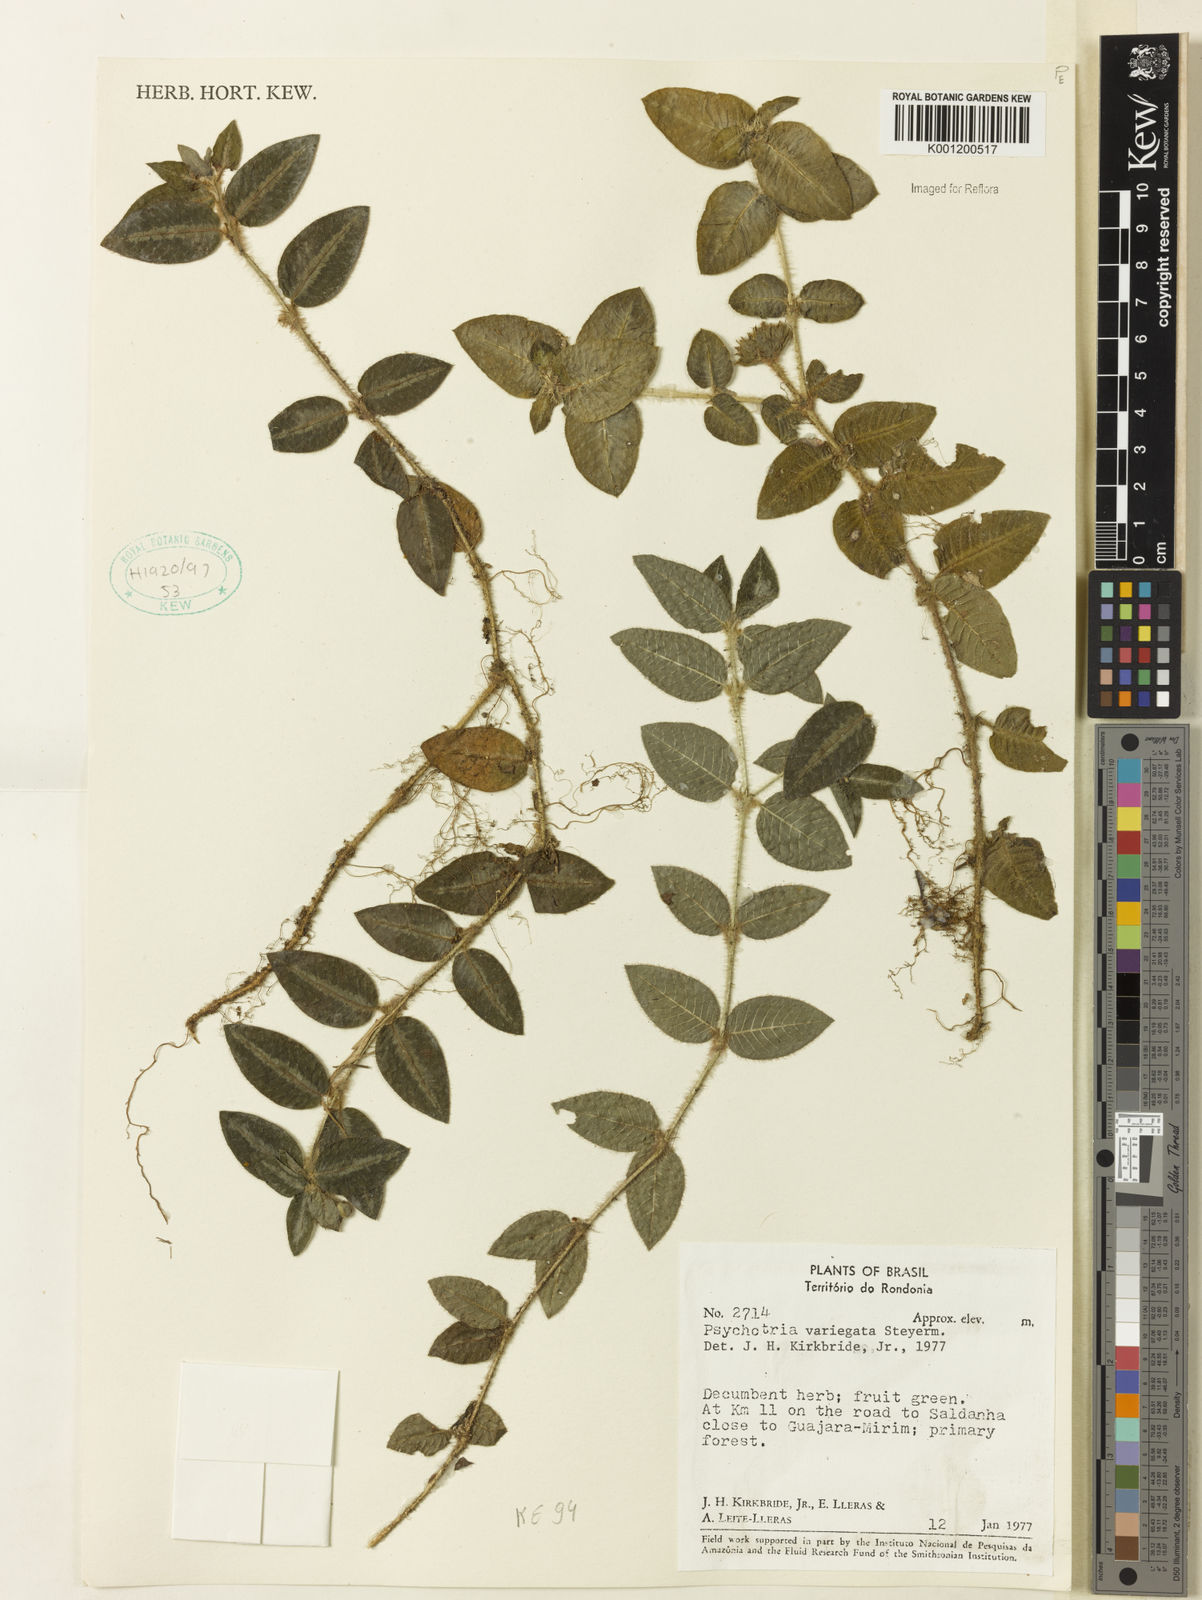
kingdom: Plantae
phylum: Tracheophyta
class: Magnoliopsida
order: Gentianales
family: Rubiaceae
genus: Palicourea
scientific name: Palicourea debilis
